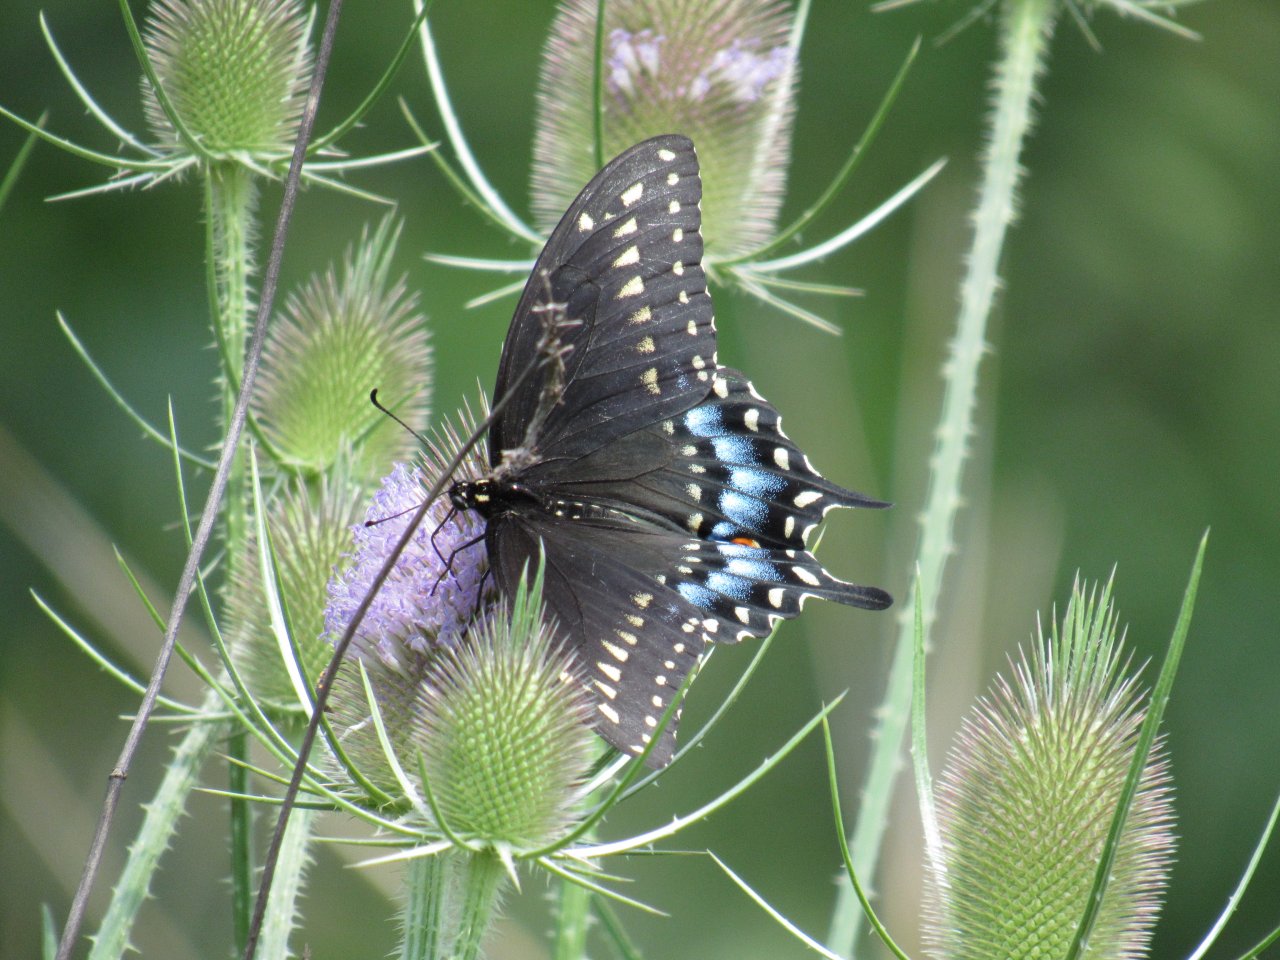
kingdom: Animalia
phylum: Arthropoda
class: Insecta
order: Lepidoptera
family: Papilionidae
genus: Papilio
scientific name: Papilio polyxenes
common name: Black Swallowtail
